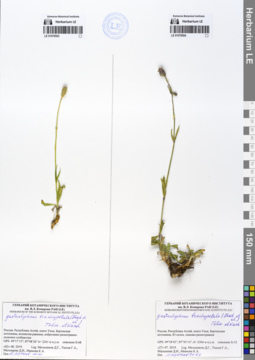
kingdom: Plantae
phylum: Tracheophyta
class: Magnoliopsida
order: Caryophyllales
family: Caryophyllaceae
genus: Silene
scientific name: Silene songarica
